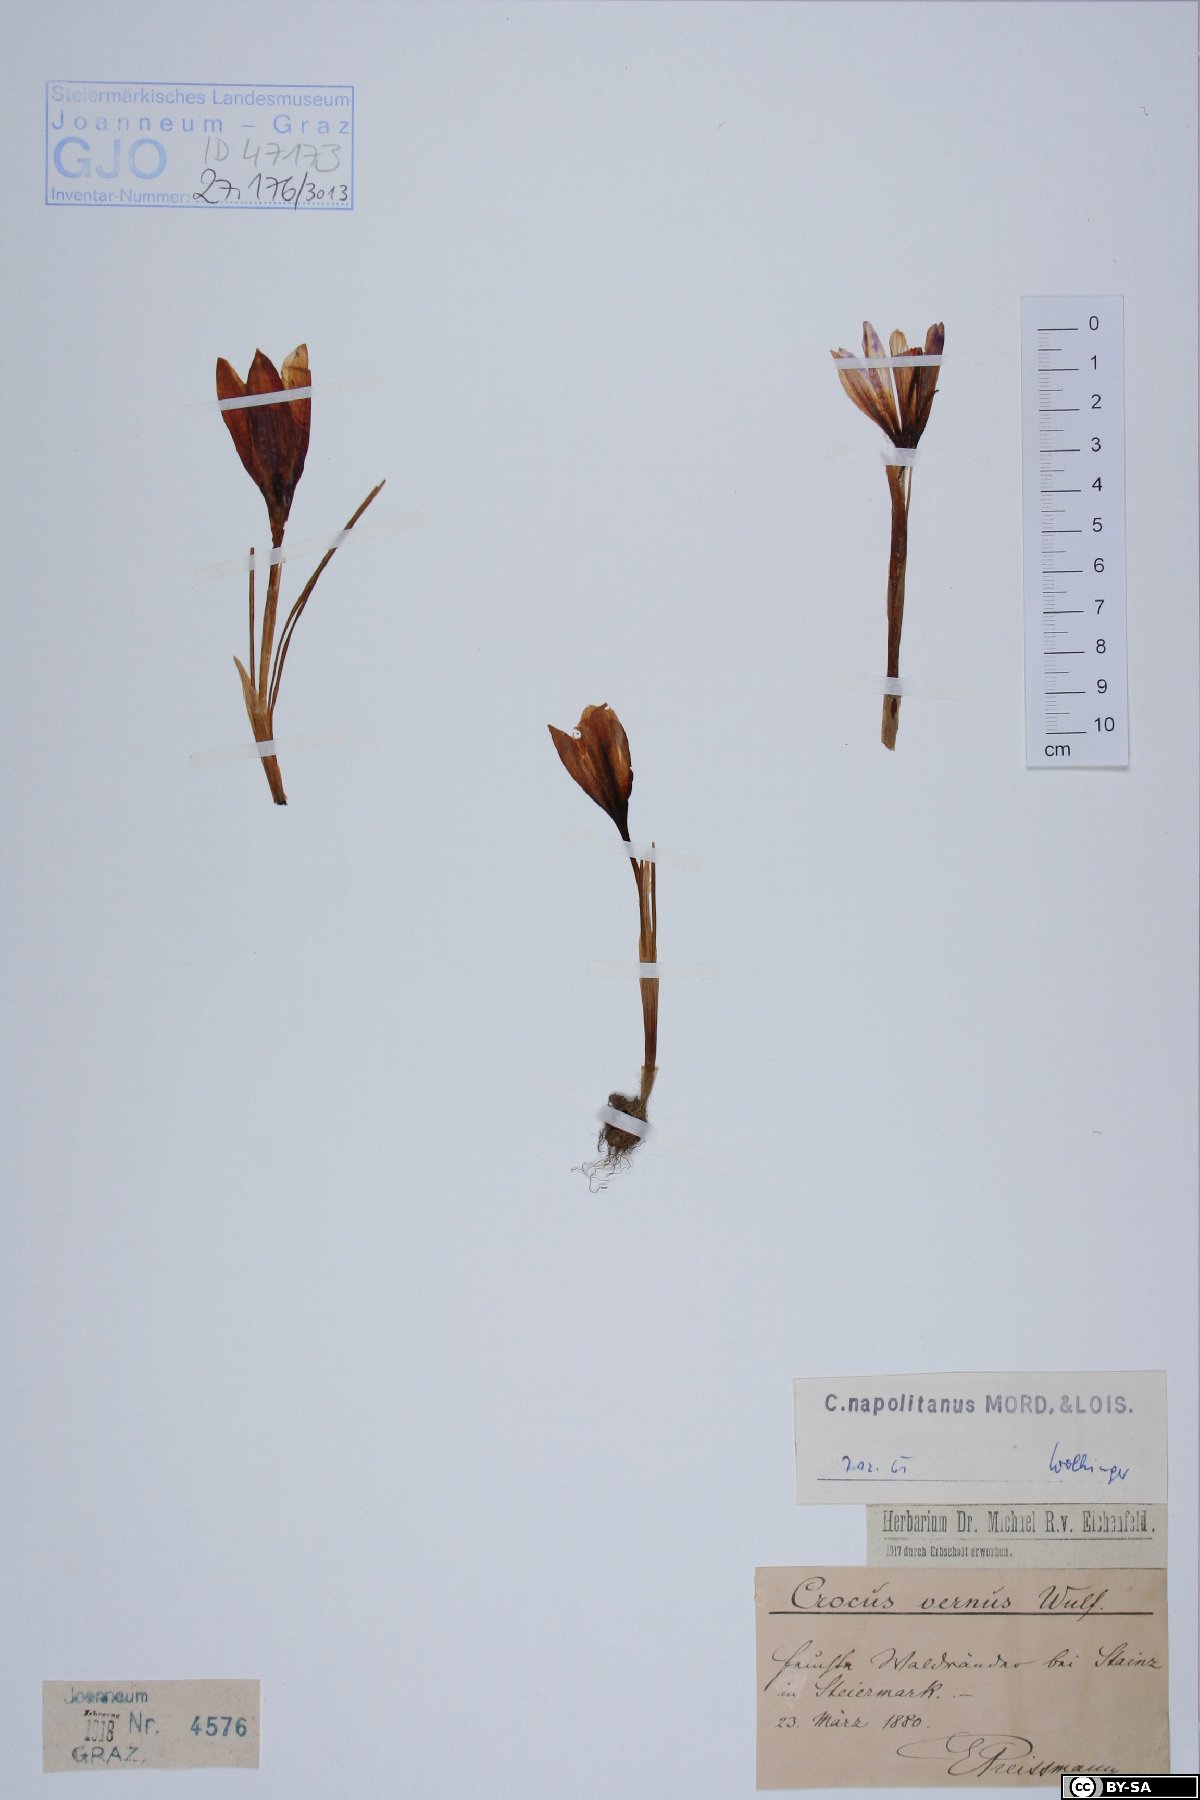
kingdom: Plantae
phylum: Tracheophyta
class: Liliopsida
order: Asparagales
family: Iridaceae
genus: Crocus
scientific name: Crocus vernus
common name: Spring crocus
